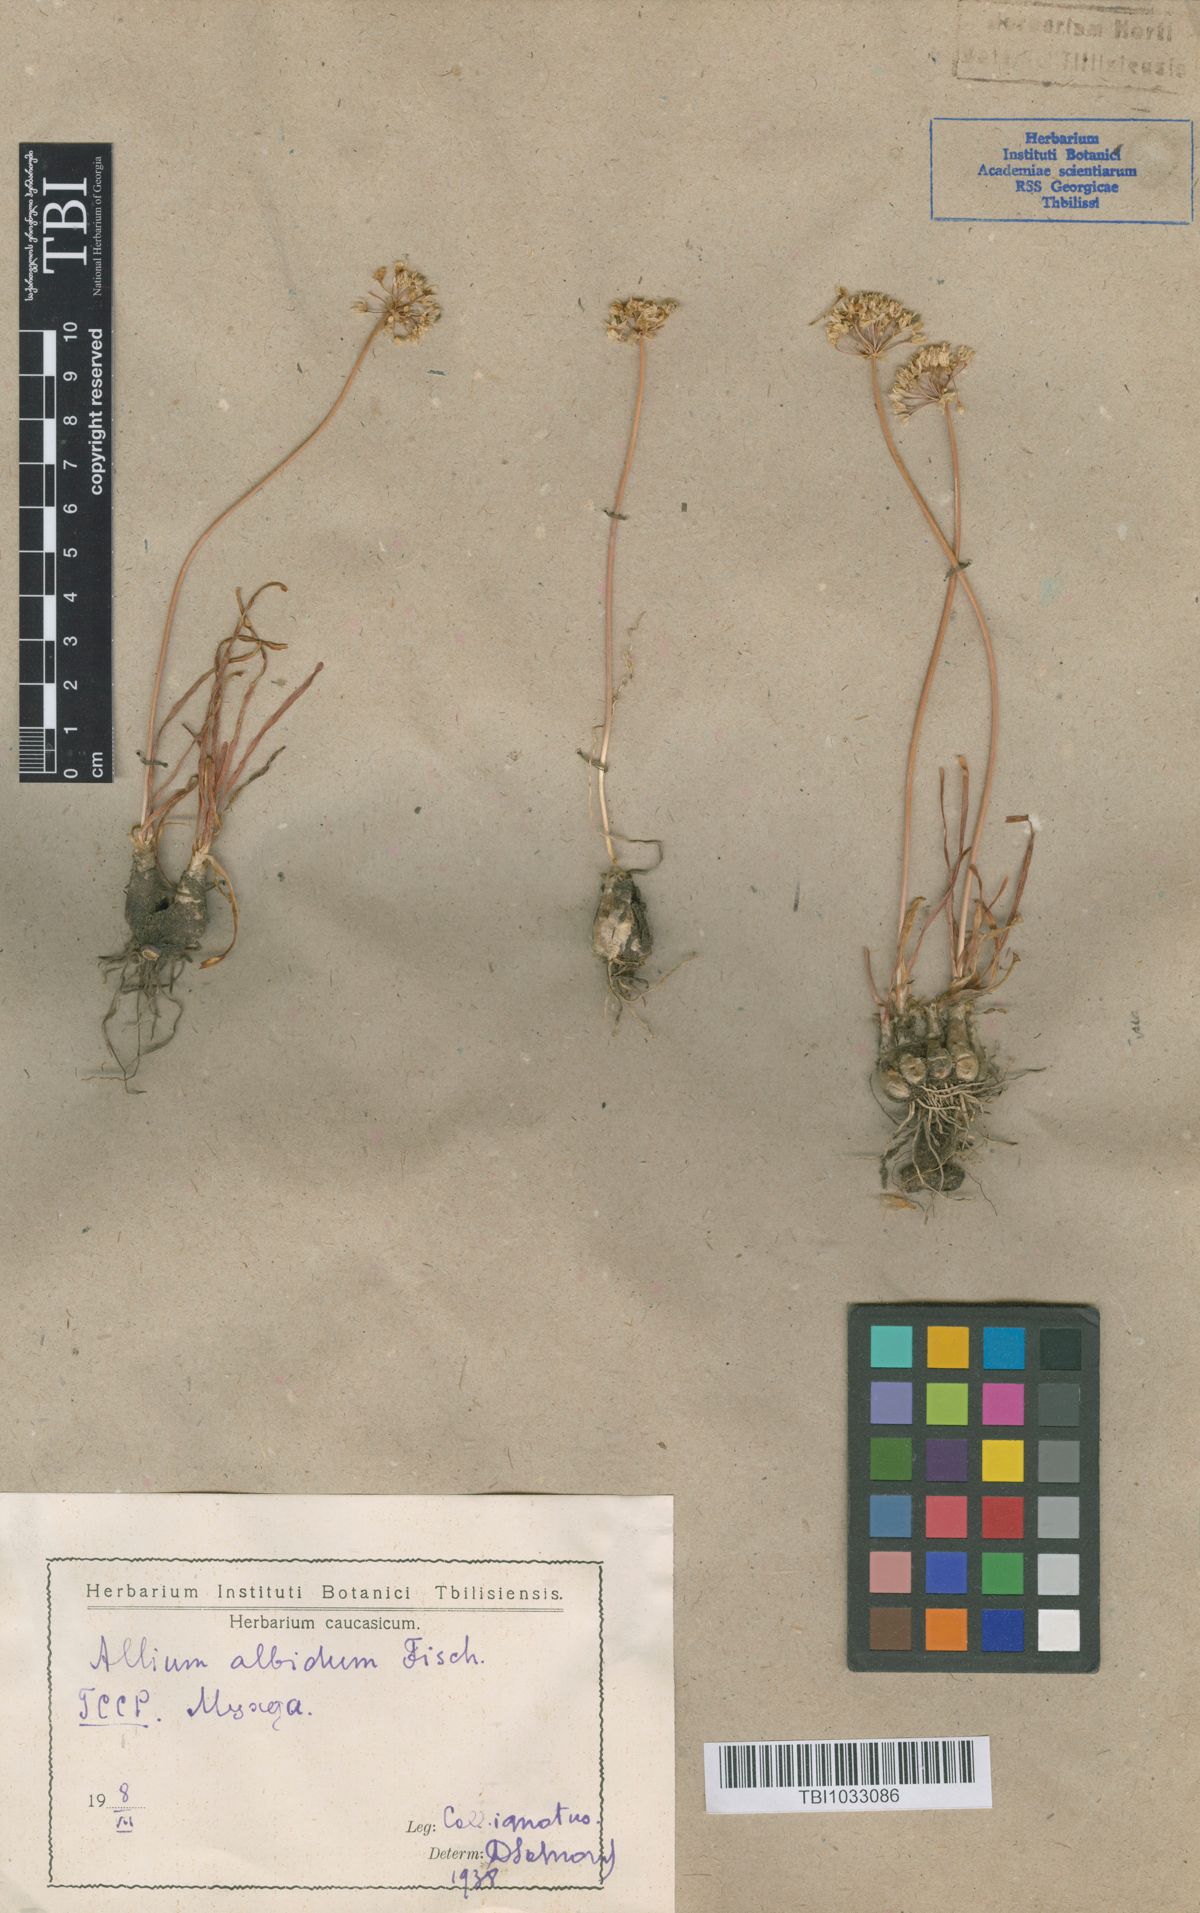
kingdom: Plantae
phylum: Tracheophyta
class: Liliopsida
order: Asparagales
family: Amaryllidaceae
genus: Allium
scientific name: Allium denudatum
